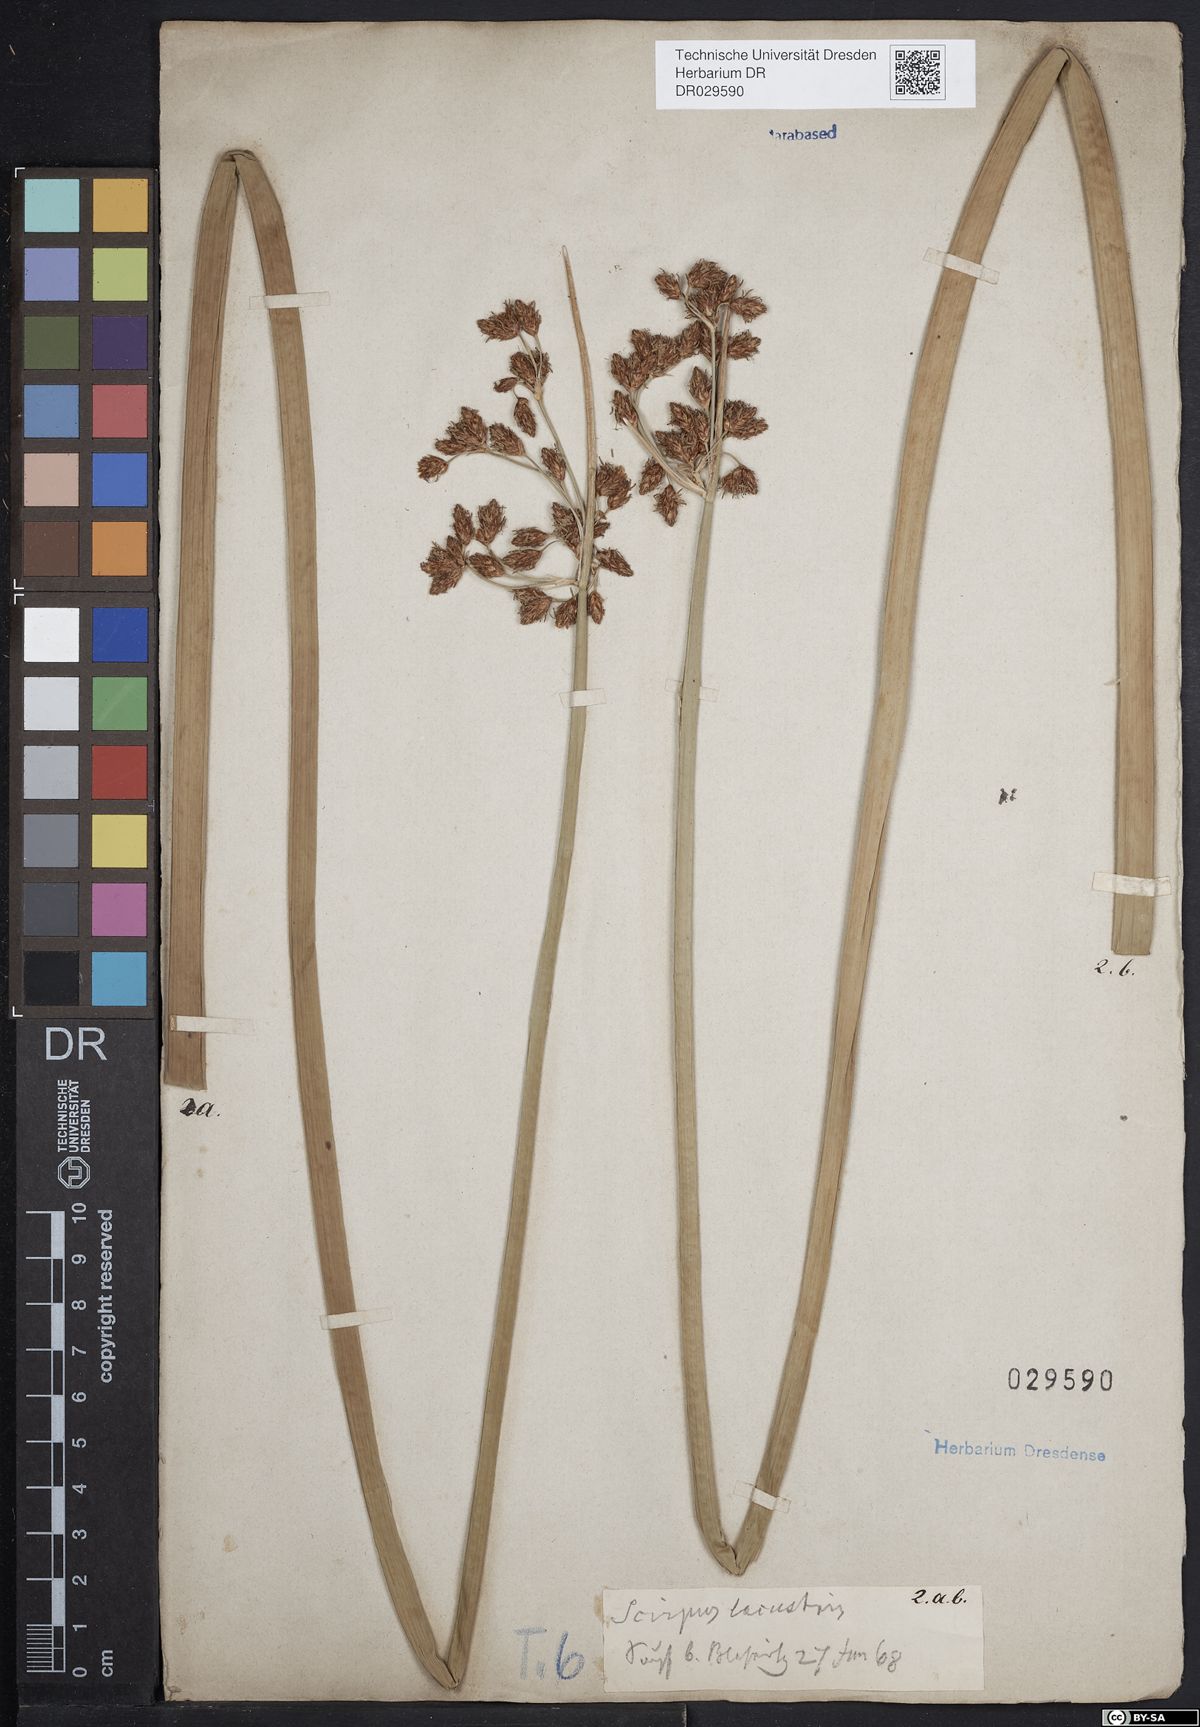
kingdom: Plantae
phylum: Tracheophyta
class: Liliopsida
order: Poales
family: Cyperaceae
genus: Schoenoplectus
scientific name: Schoenoplectus lacustris
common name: Common club-rush
